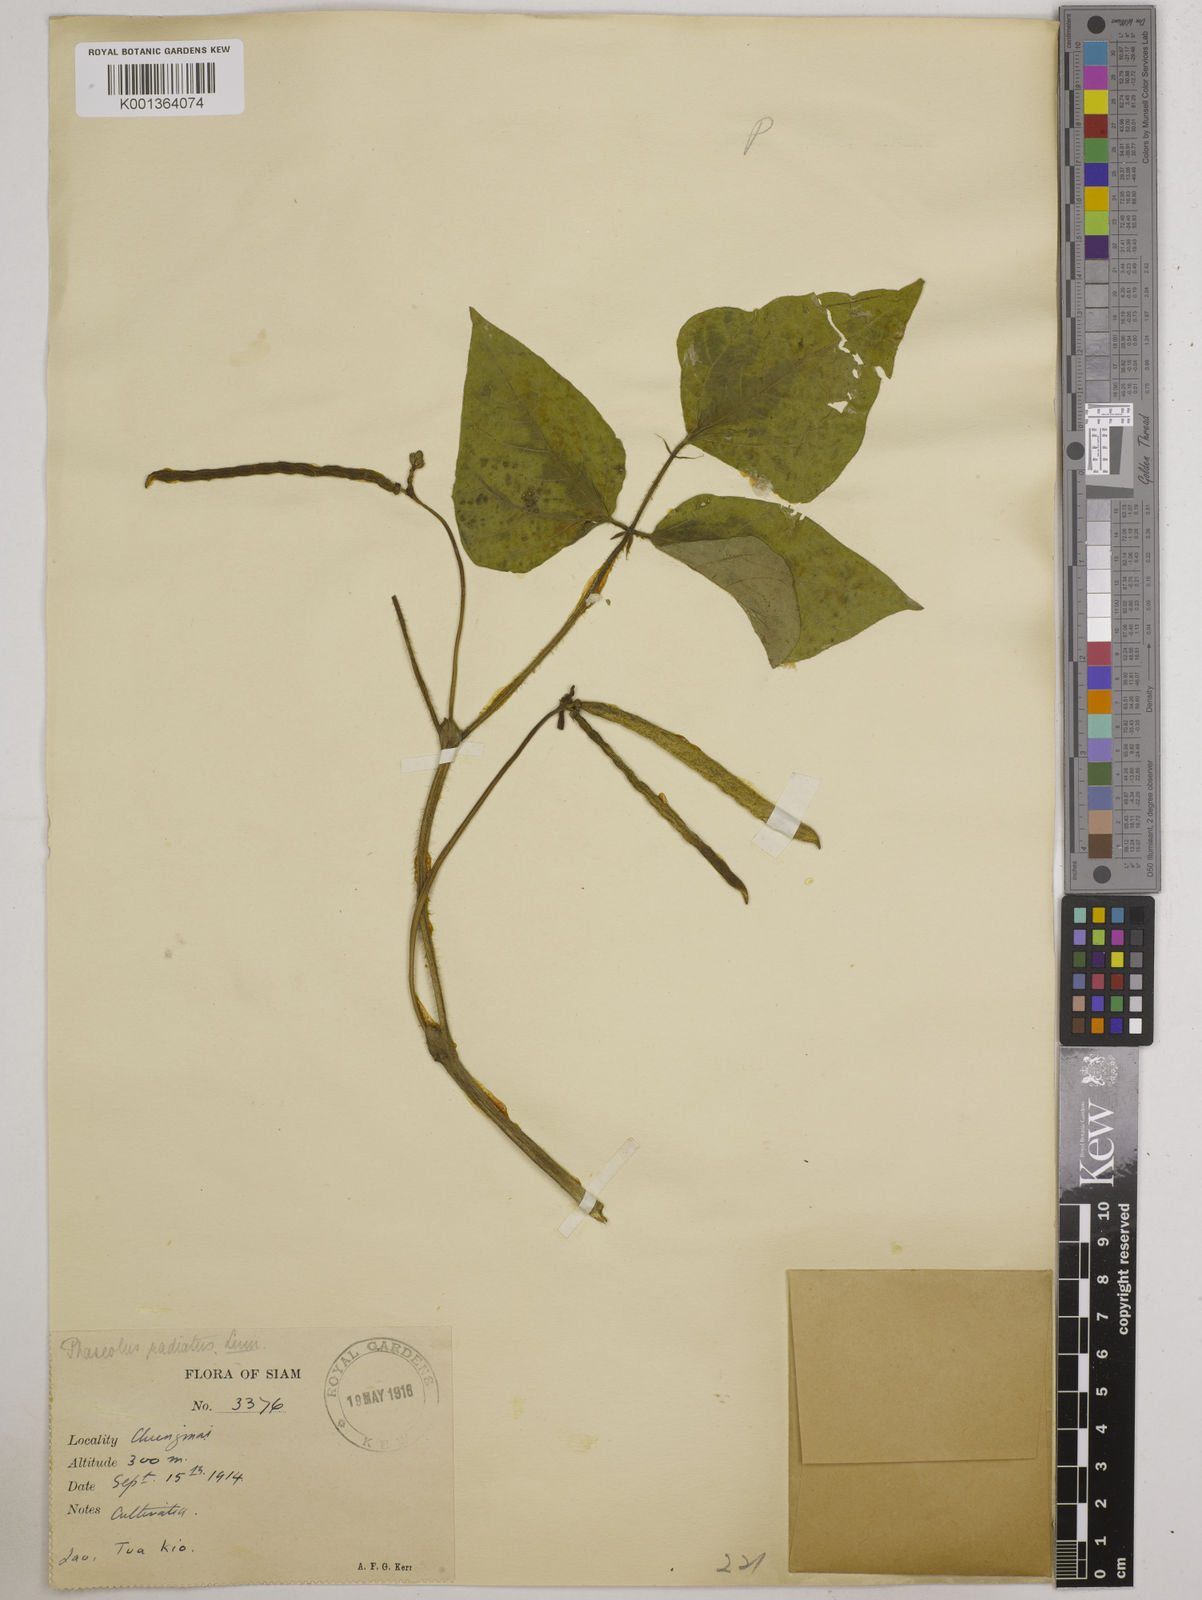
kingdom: Plantae
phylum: Tracheophyta
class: Magnoliopsida
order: Fabales
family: Fabaceae
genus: Vigna
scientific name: Vigna radiata
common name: Mung-bean
